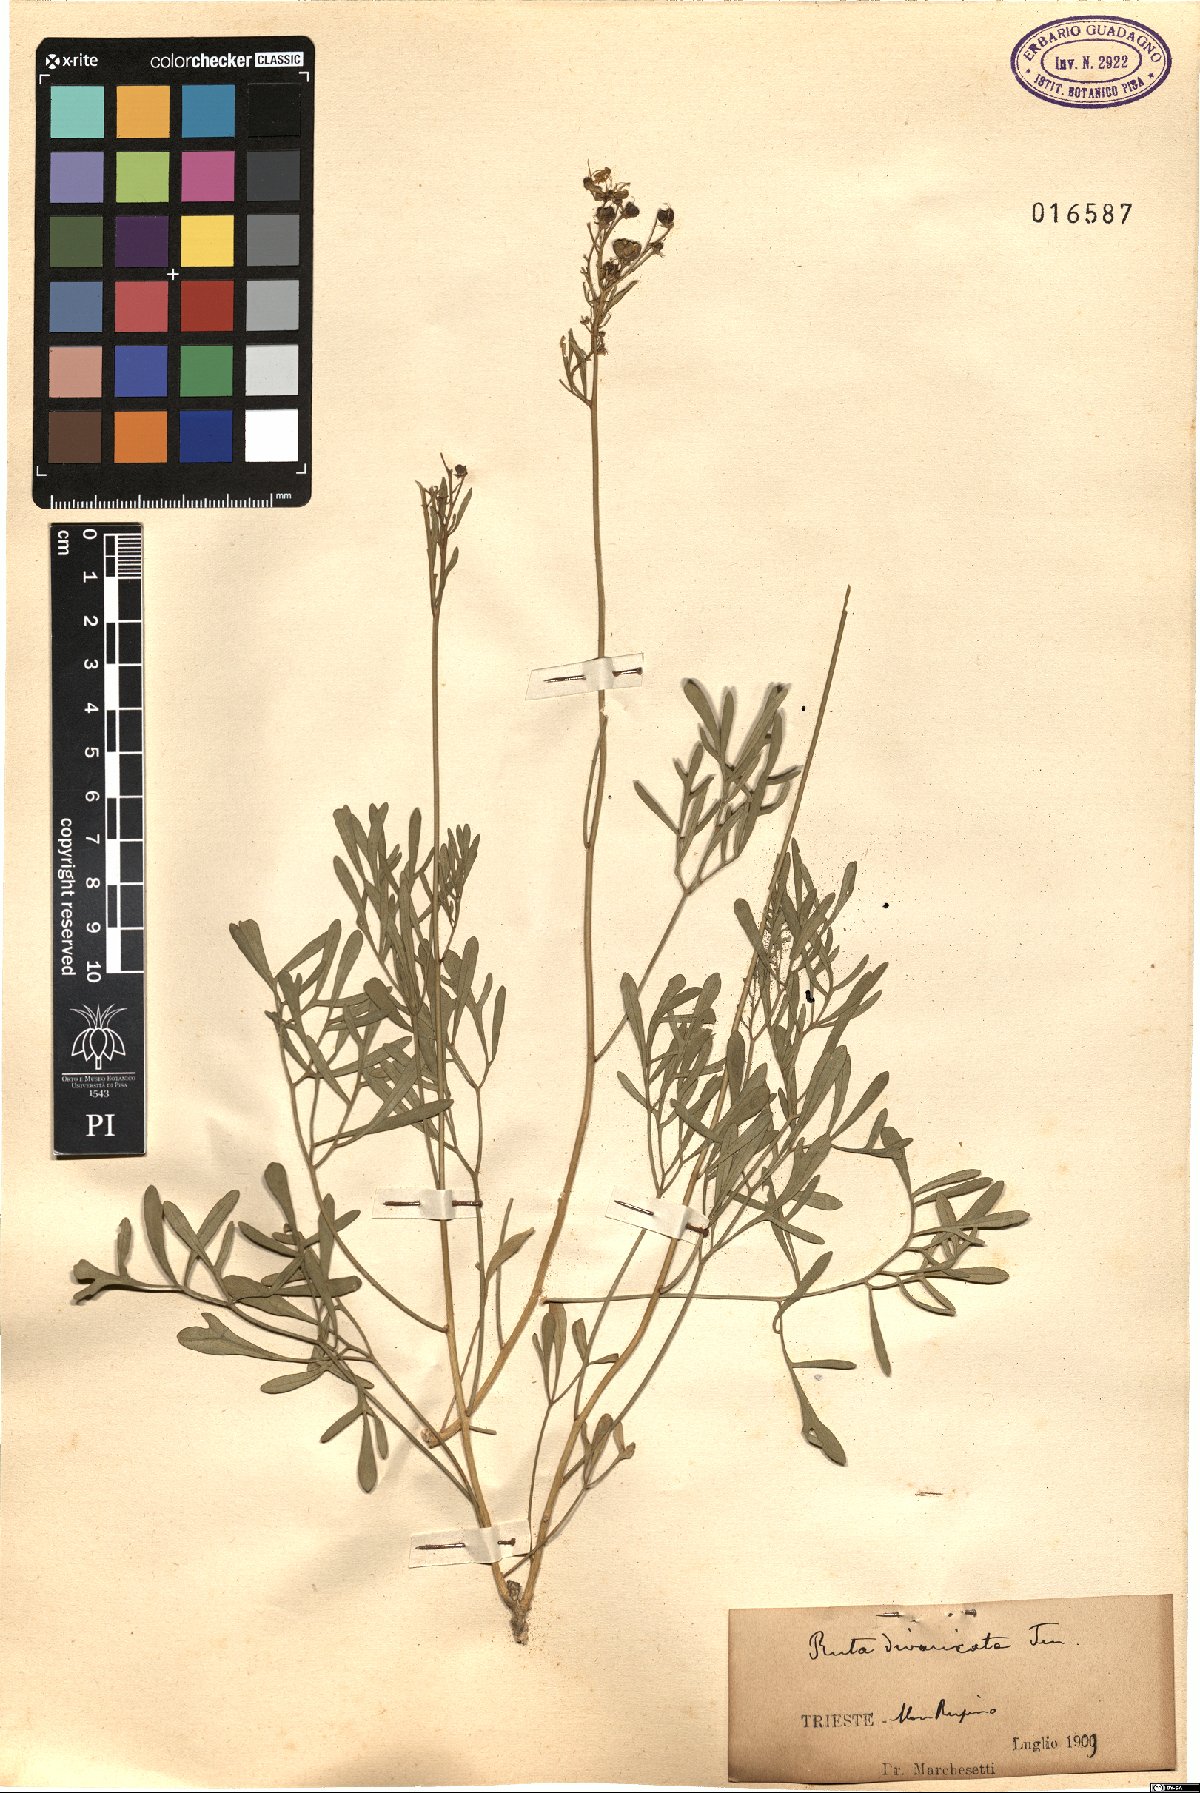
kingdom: Plantae
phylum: Tracheophyta
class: Magnoliopsida
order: Sapindales
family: Rutaceae
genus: Ruta
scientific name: Ruta graveolens
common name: Common rue
